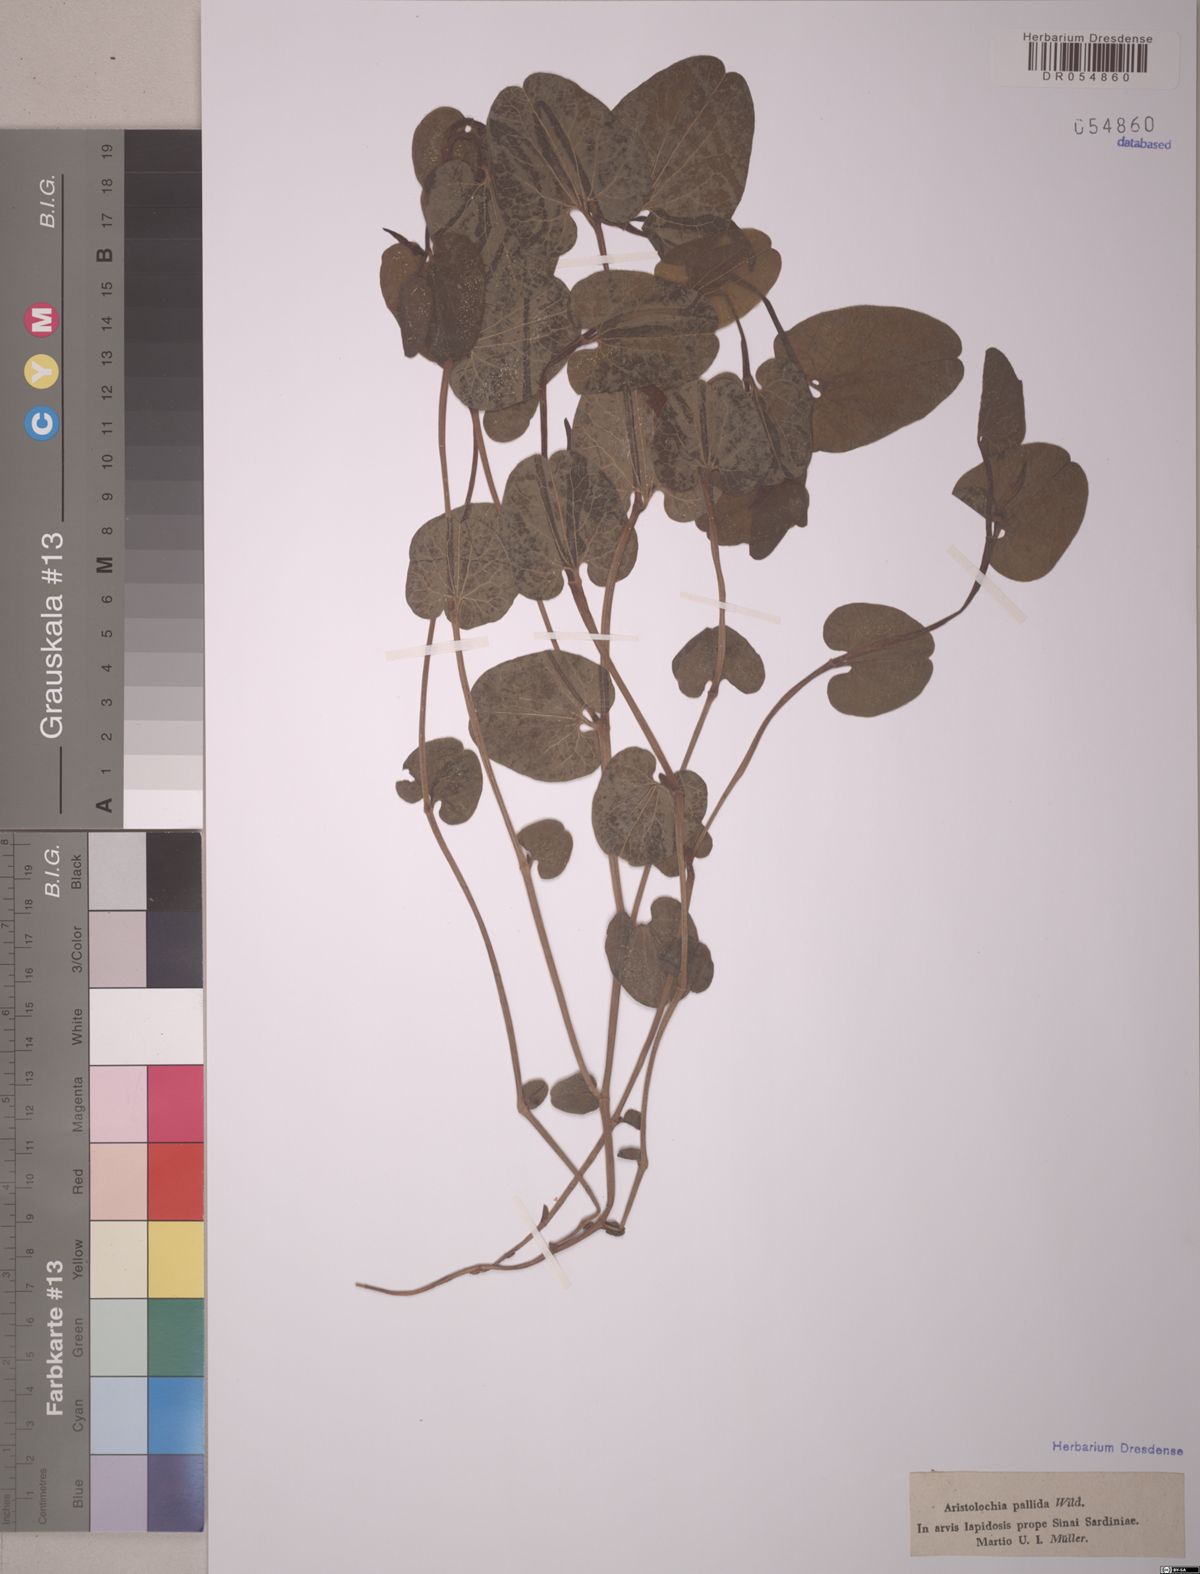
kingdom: Plantae
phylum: Tracheophyta
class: Magnoliopsida
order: Piperales
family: Aristolochiaceae
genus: Aristolochia
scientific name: Aristolochia pallida
